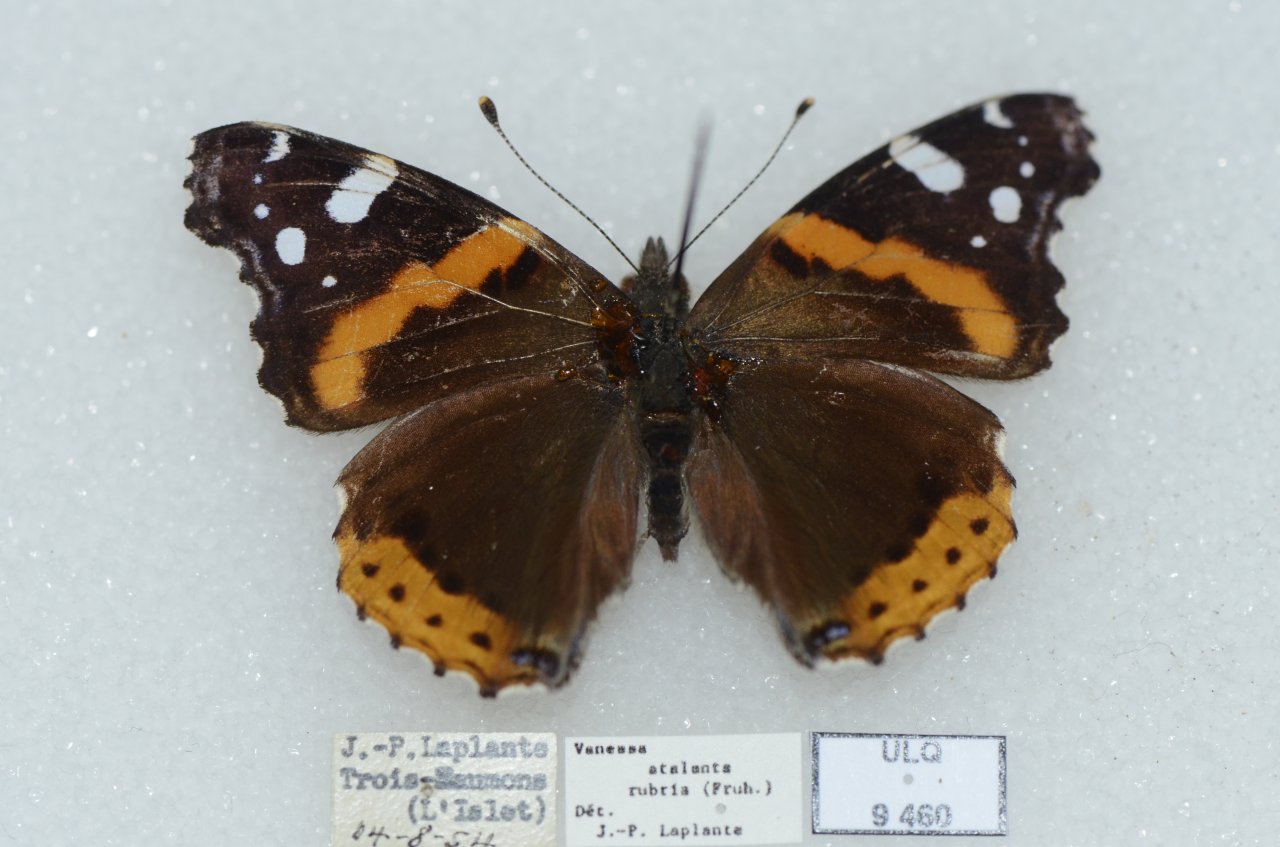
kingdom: Animalia
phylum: Arthropoda
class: Insecta
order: Lepidoptera
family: Nymphalidae
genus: Vanessa
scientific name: Vanessa atalanta
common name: Red Admiral
